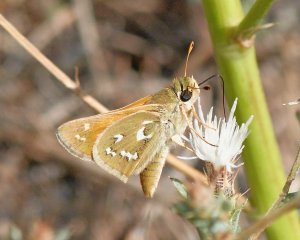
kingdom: Animalia
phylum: Arthropoda
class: Insecta
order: Lepidoptera
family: Hesperiidae
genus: Hesperia
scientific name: Hesperia comma
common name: Western Branded Skipper
